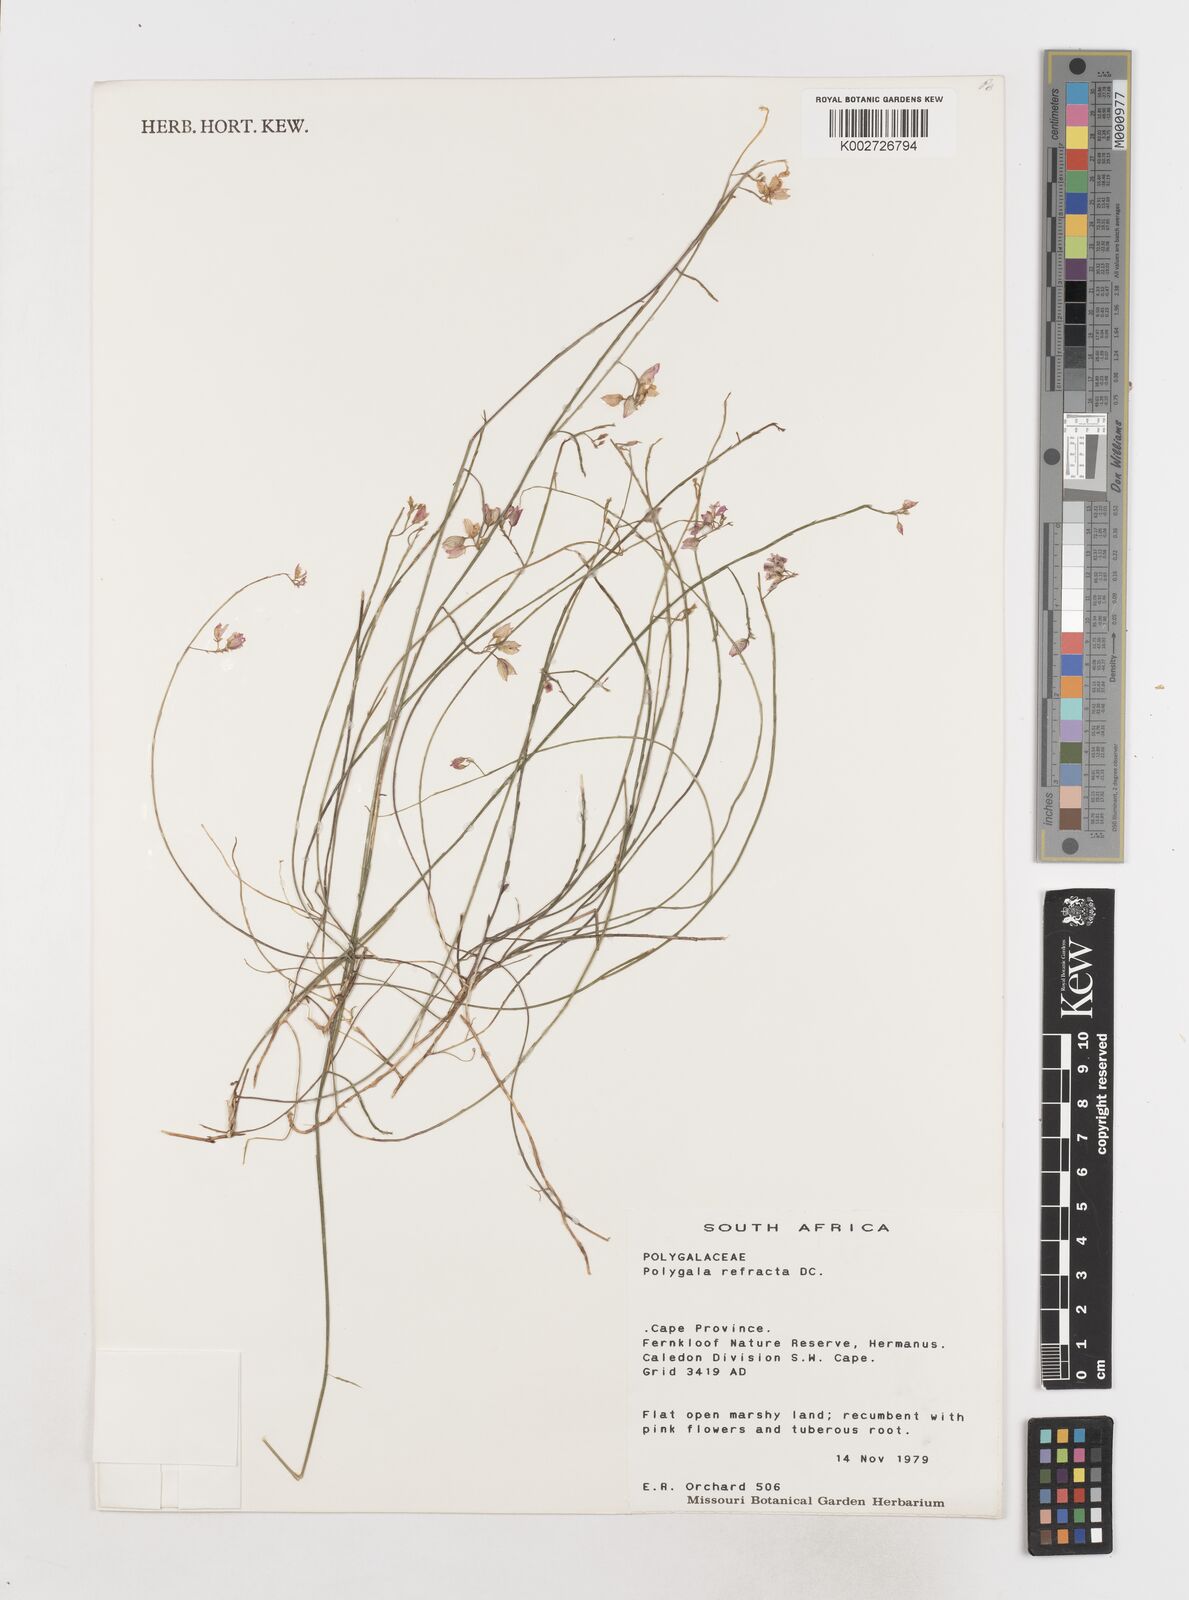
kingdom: Plantae
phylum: Tracheophyta
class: Magnoliopsida
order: Fabales
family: Polygalaceae
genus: Polygala
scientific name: Polygala refracta
